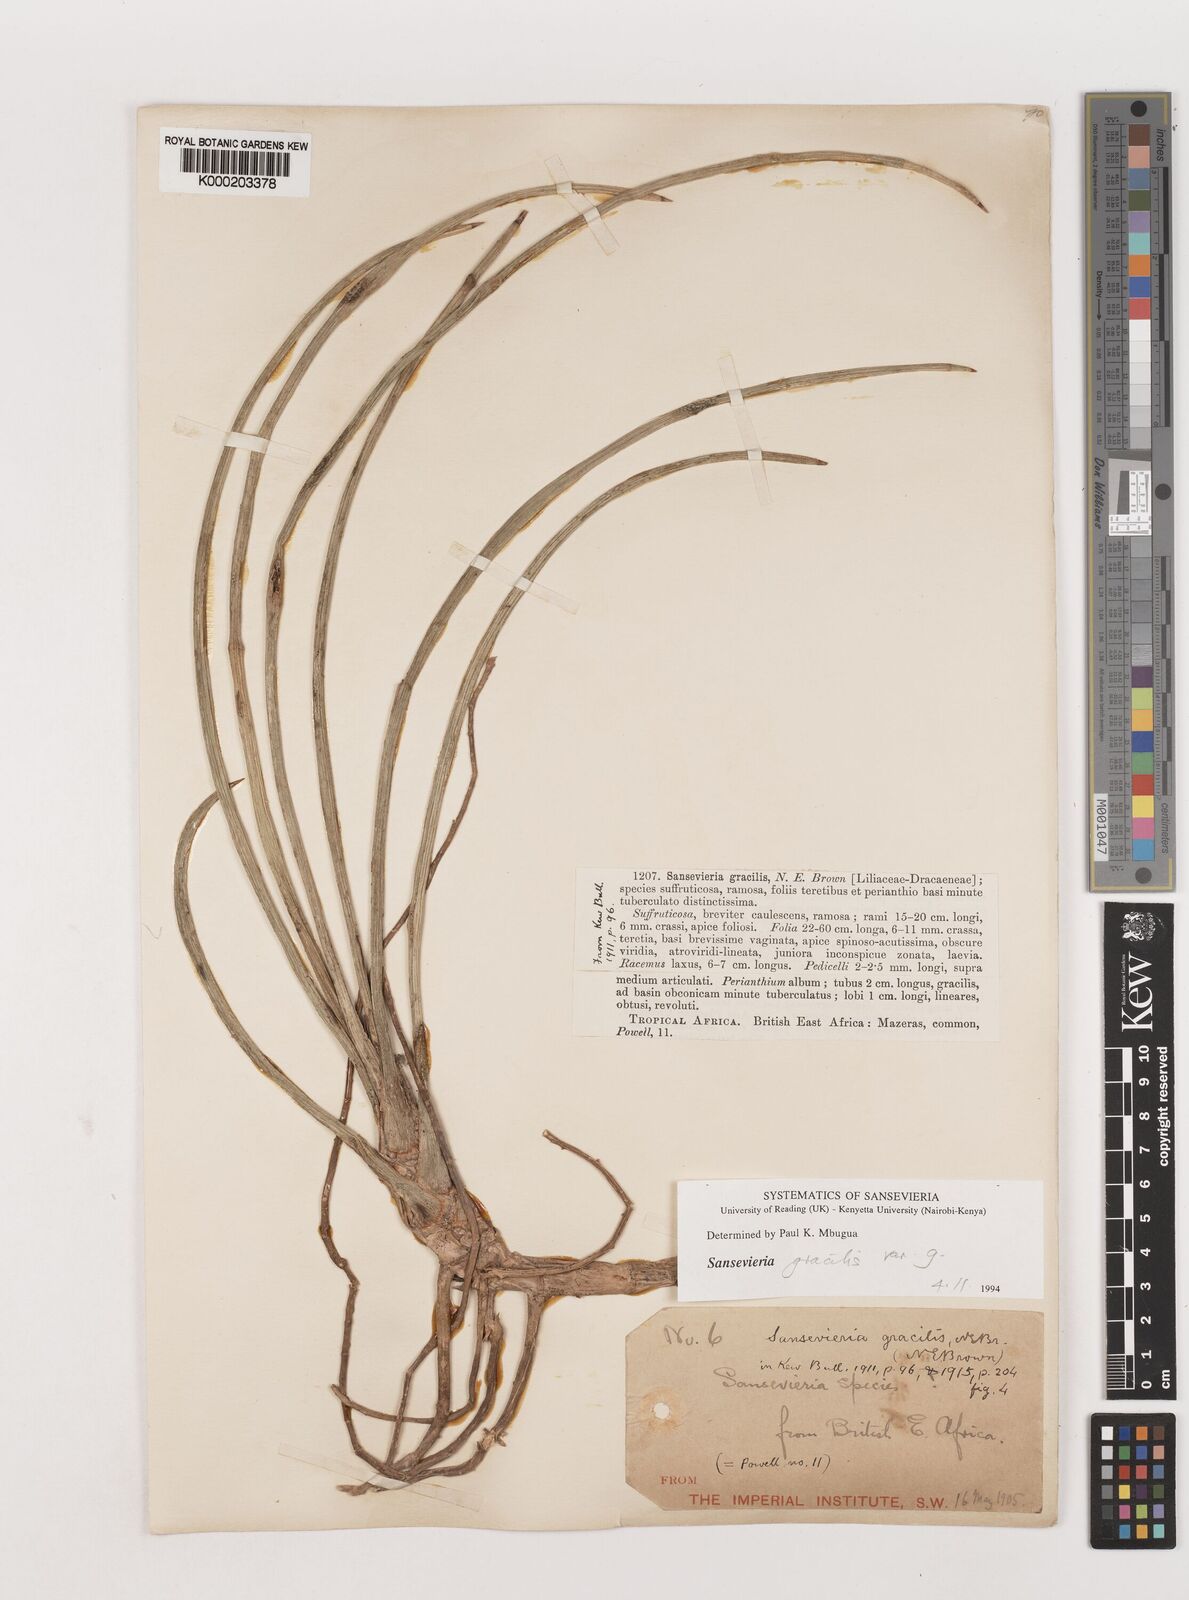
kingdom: Plantae
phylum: Tracheophyta
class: Liliopsida
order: Asparagales
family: Asparagaceae
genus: Dracaena
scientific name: Dracaena serpenta
